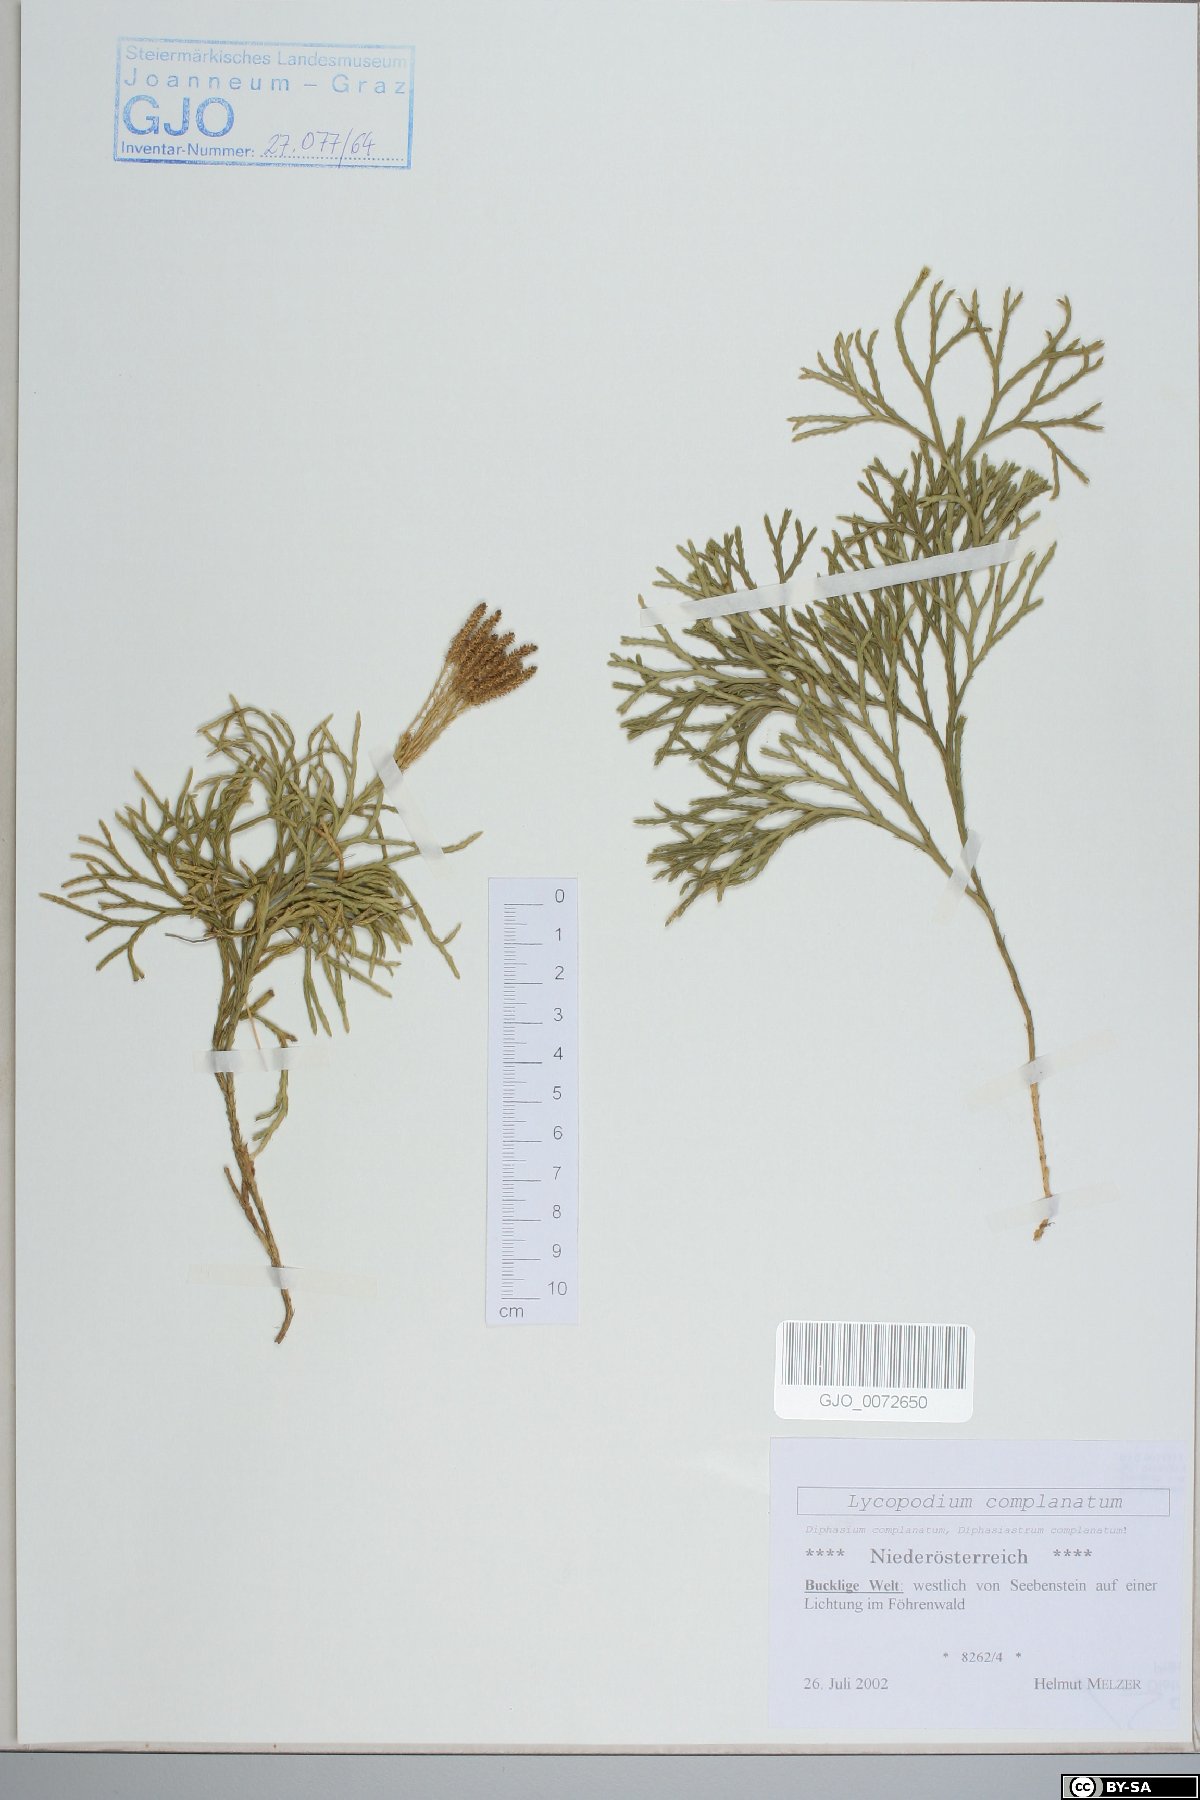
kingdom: Plantae
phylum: Tracheophyta
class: Lycopodiopsida
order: Lycopodiales
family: Lycopodiaceae
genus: Diphasiastrum
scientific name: Diphasiastrum complanatum
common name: Northern running-pine
